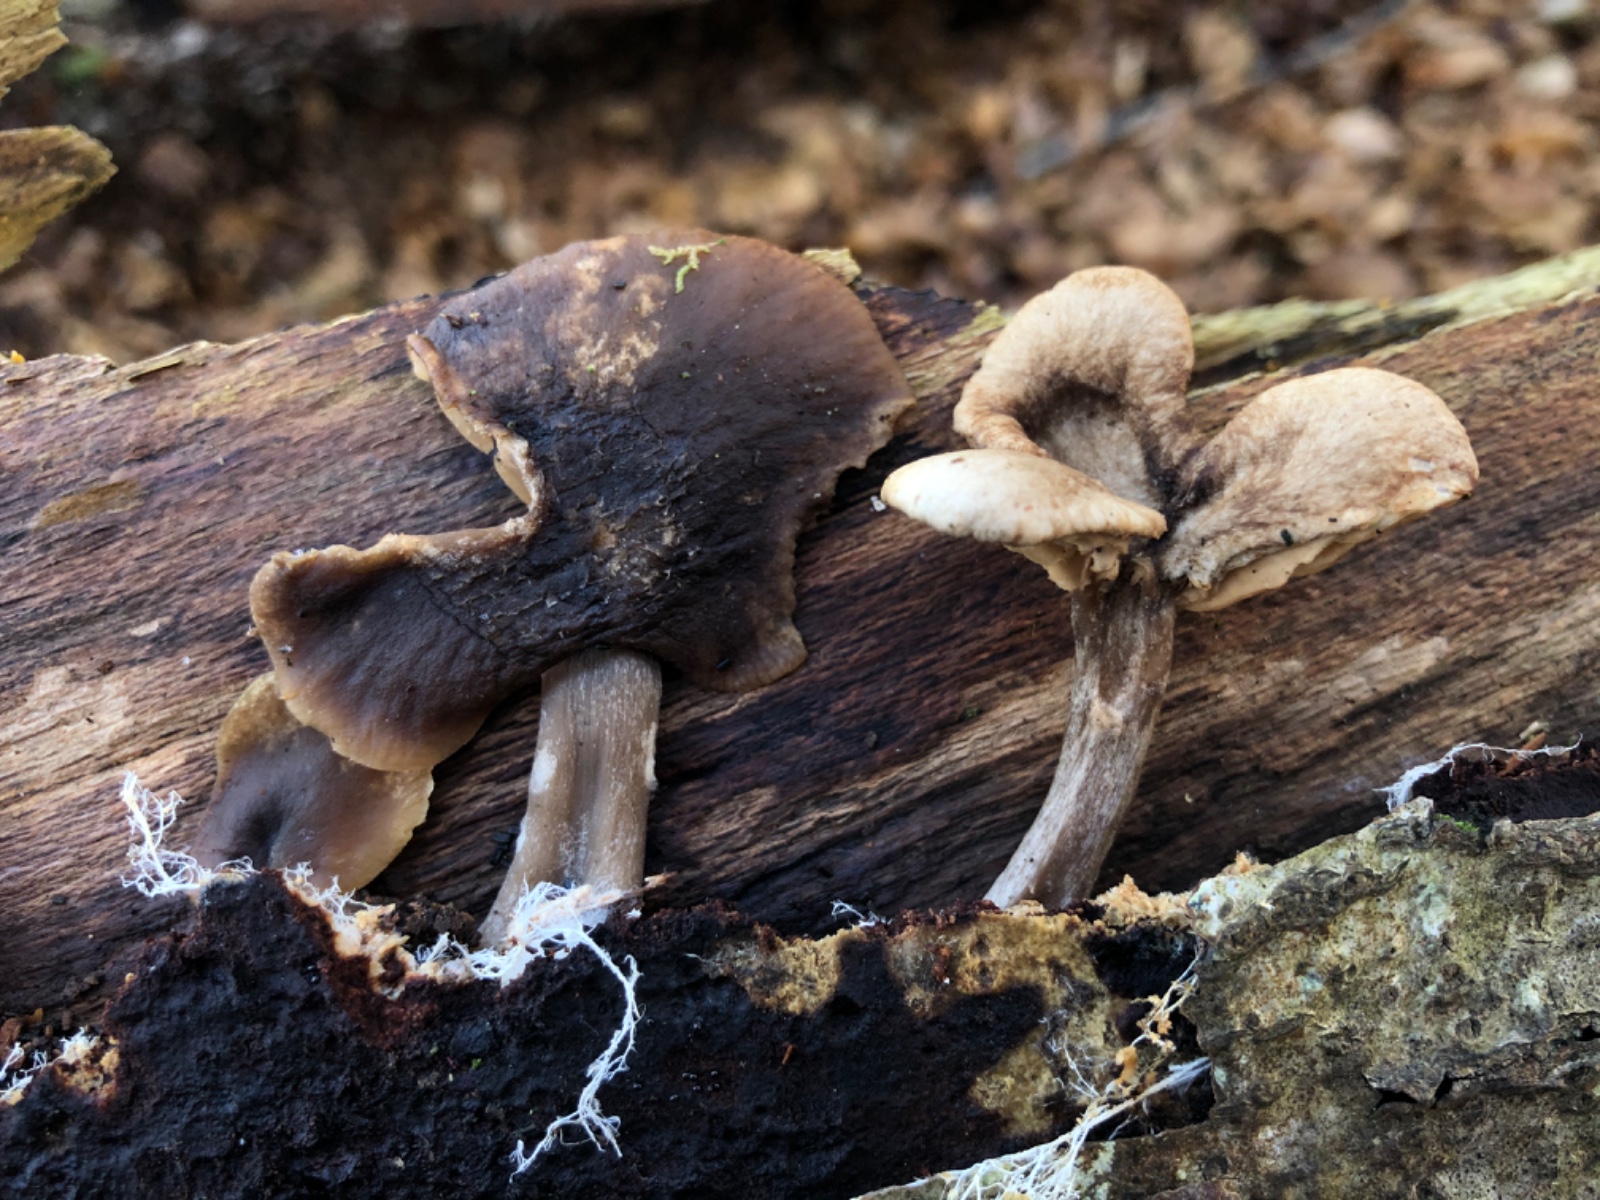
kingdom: Fungi
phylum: Basidiomycota
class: Agaricomycetes
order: Agaricales
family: Pseudoclitocybaceae
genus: Pseudoclitocybe
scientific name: Pseudoclitocybe cyathiformis
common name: almindelig bægertragthat
